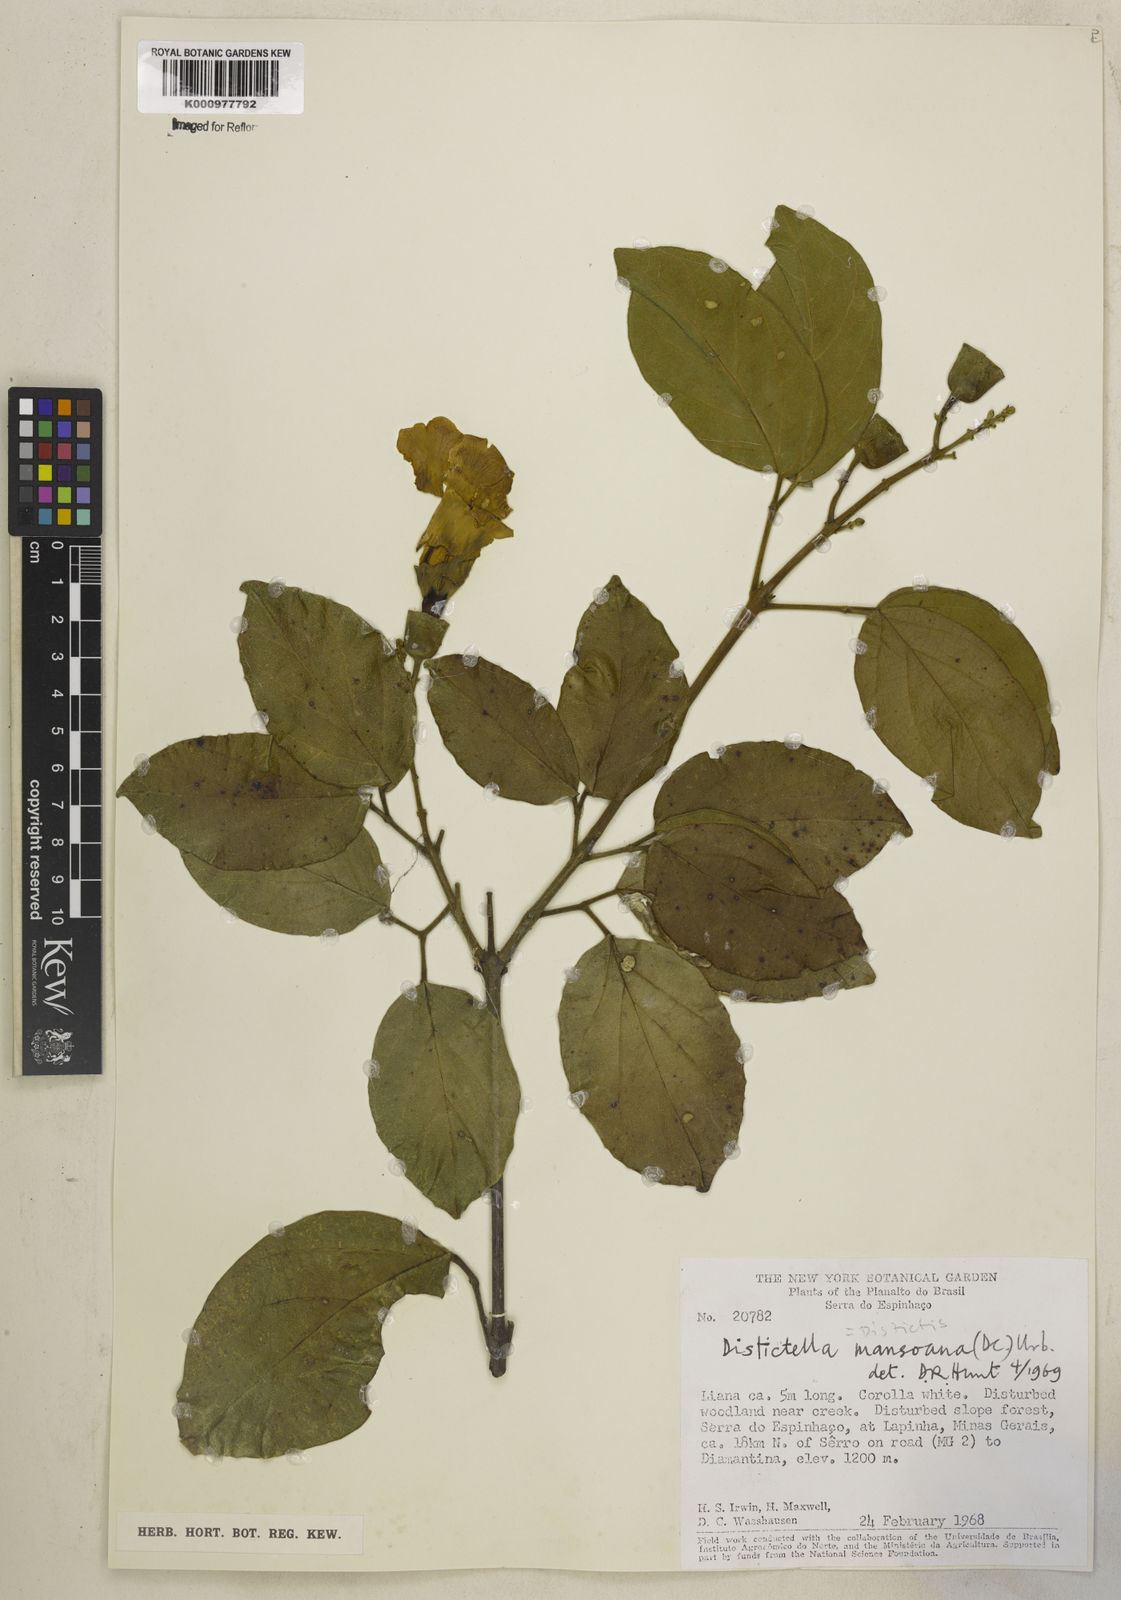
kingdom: Plantae
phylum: Tracheophyta
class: Magnoliopsida
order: Lamiales
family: Bignoniaceae
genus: Amphilophium
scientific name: Amphilophium mansoanum
